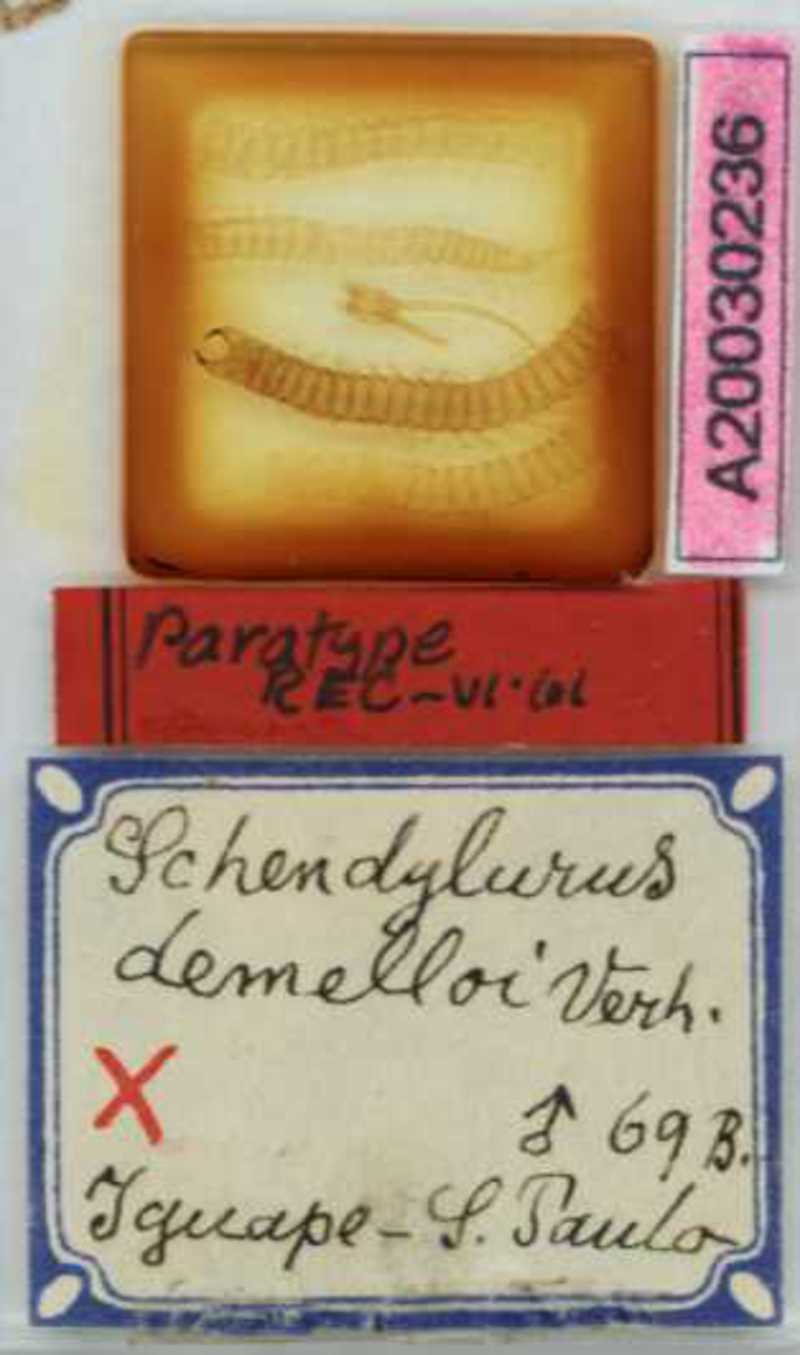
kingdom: Animalia
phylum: Arthropoda
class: Chilopoda
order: Geophilomorpha
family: Schendylidae
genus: Schendyla
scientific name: Schendyla
